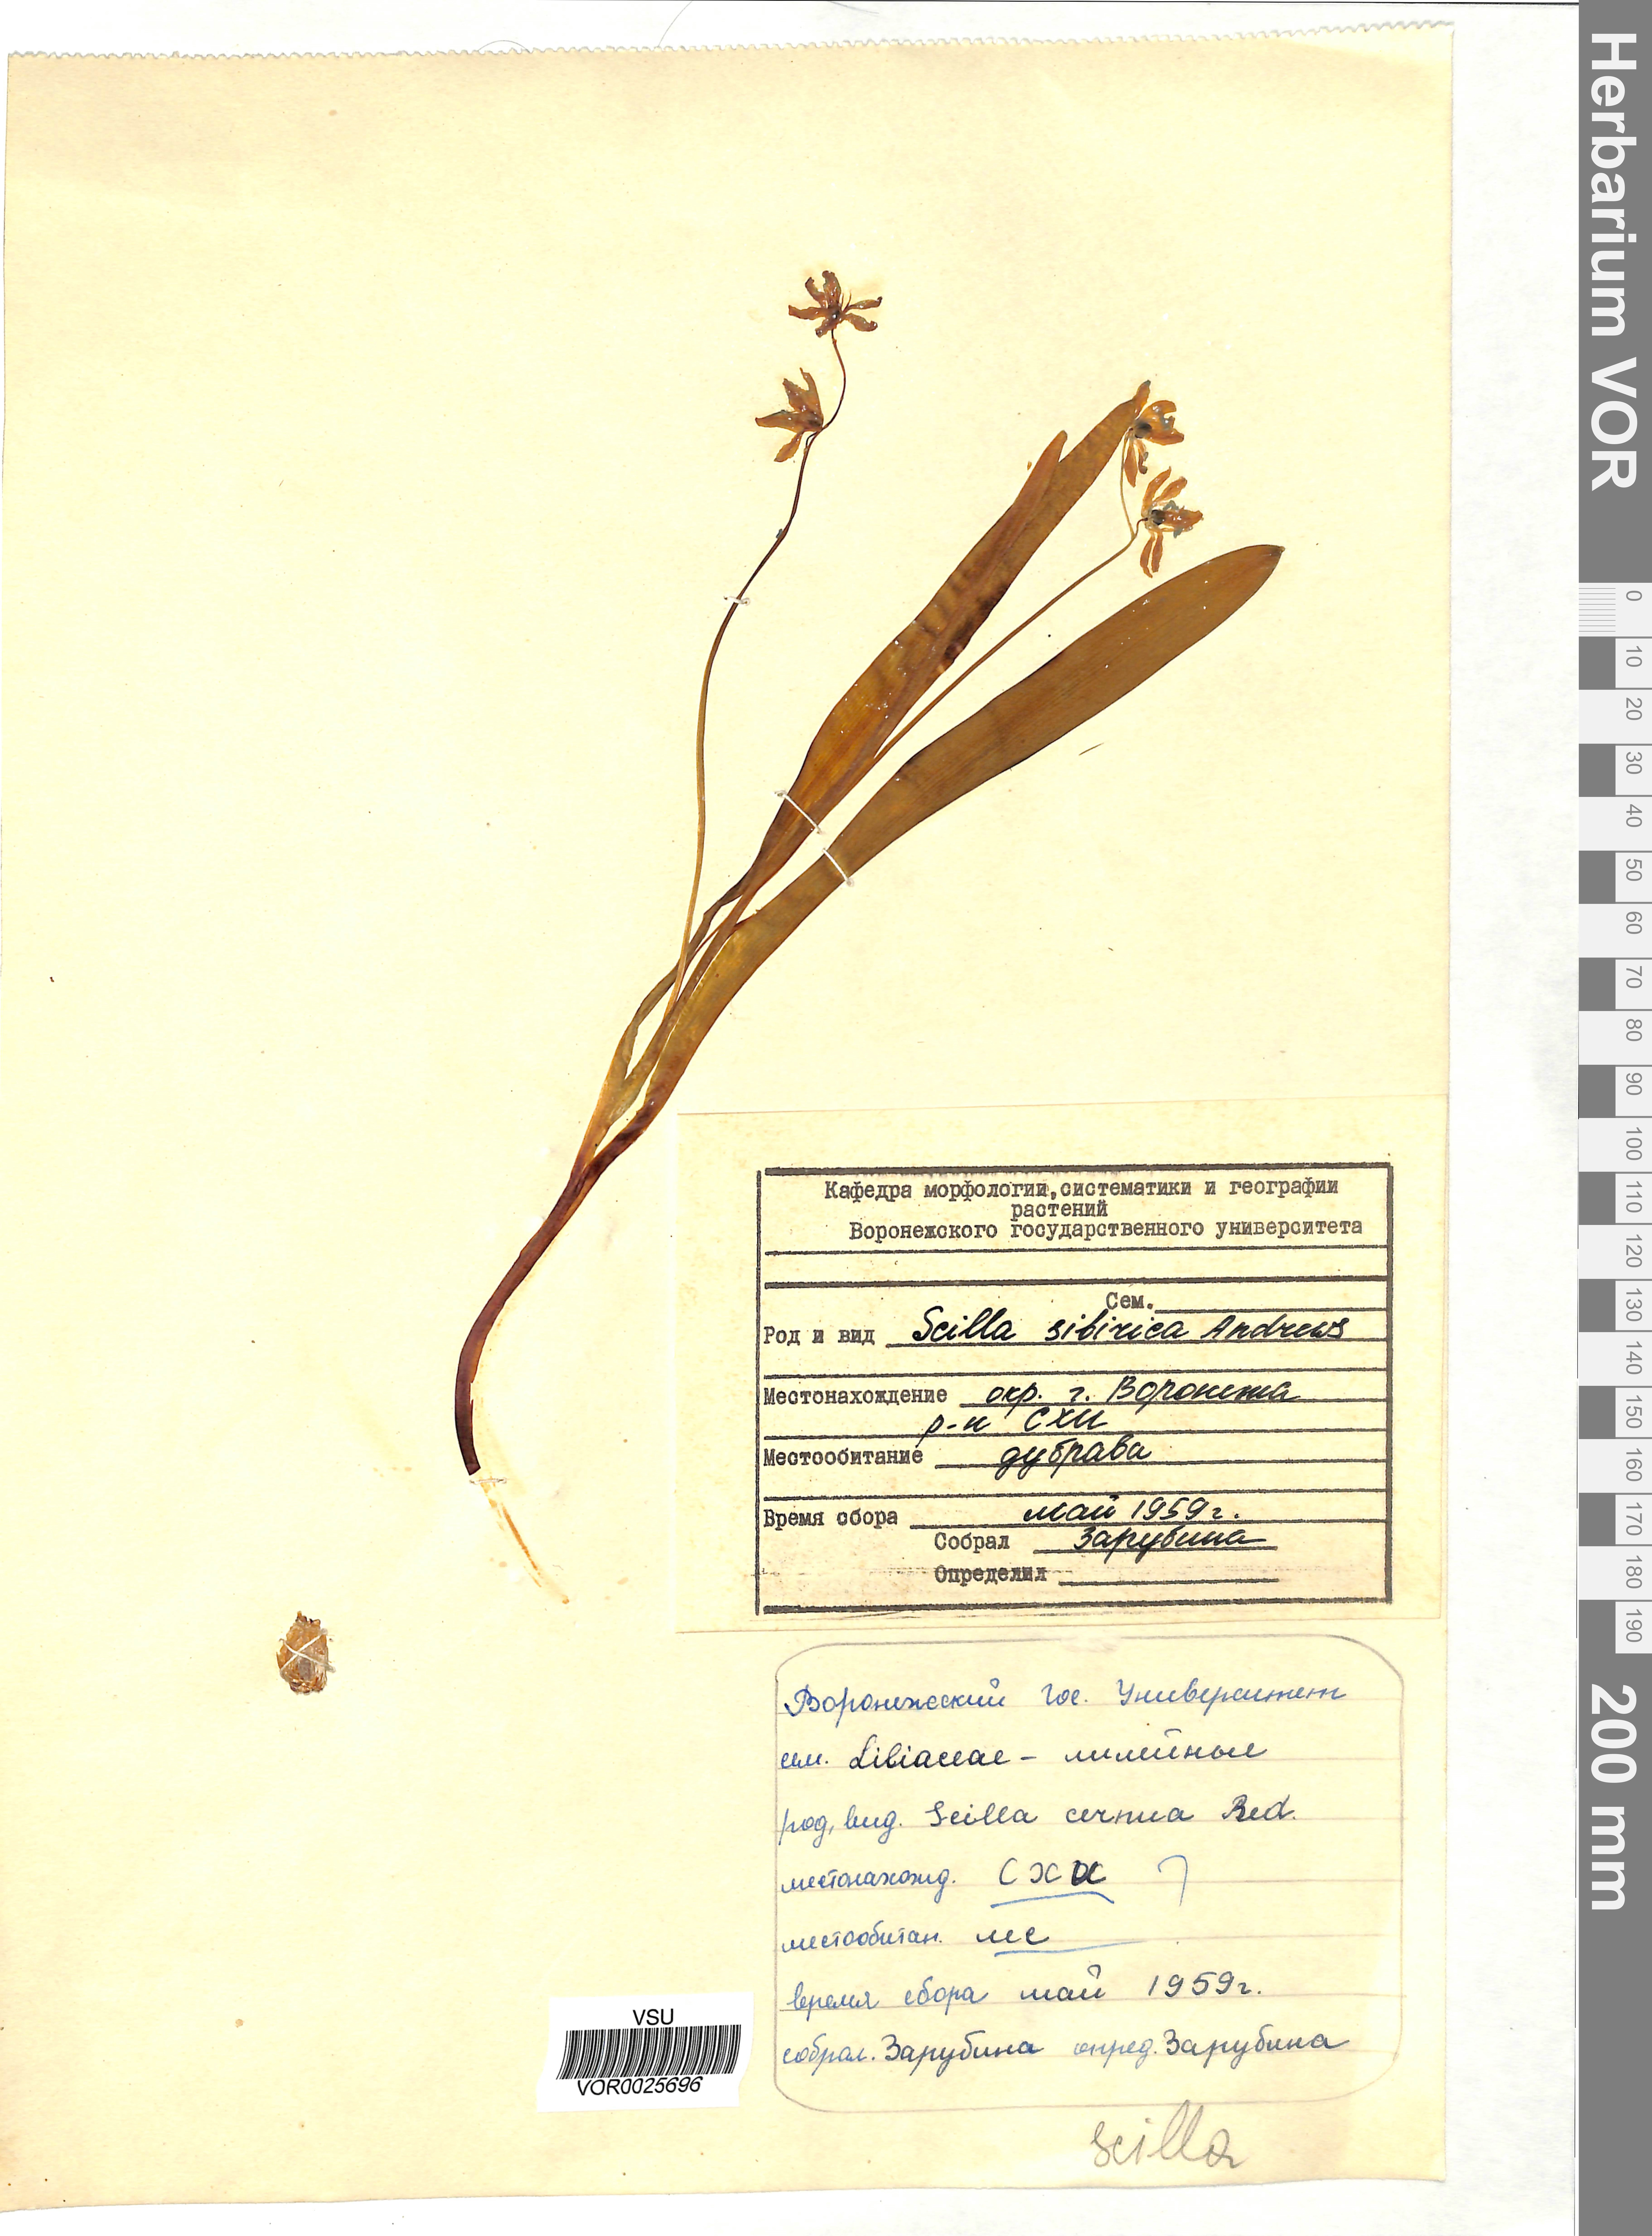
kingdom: Plantae
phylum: Tracheophyta
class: Liliopsida
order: Asparagales
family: Asparagaceae
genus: Scilla
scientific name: Scilla siberica
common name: Siberian squill
